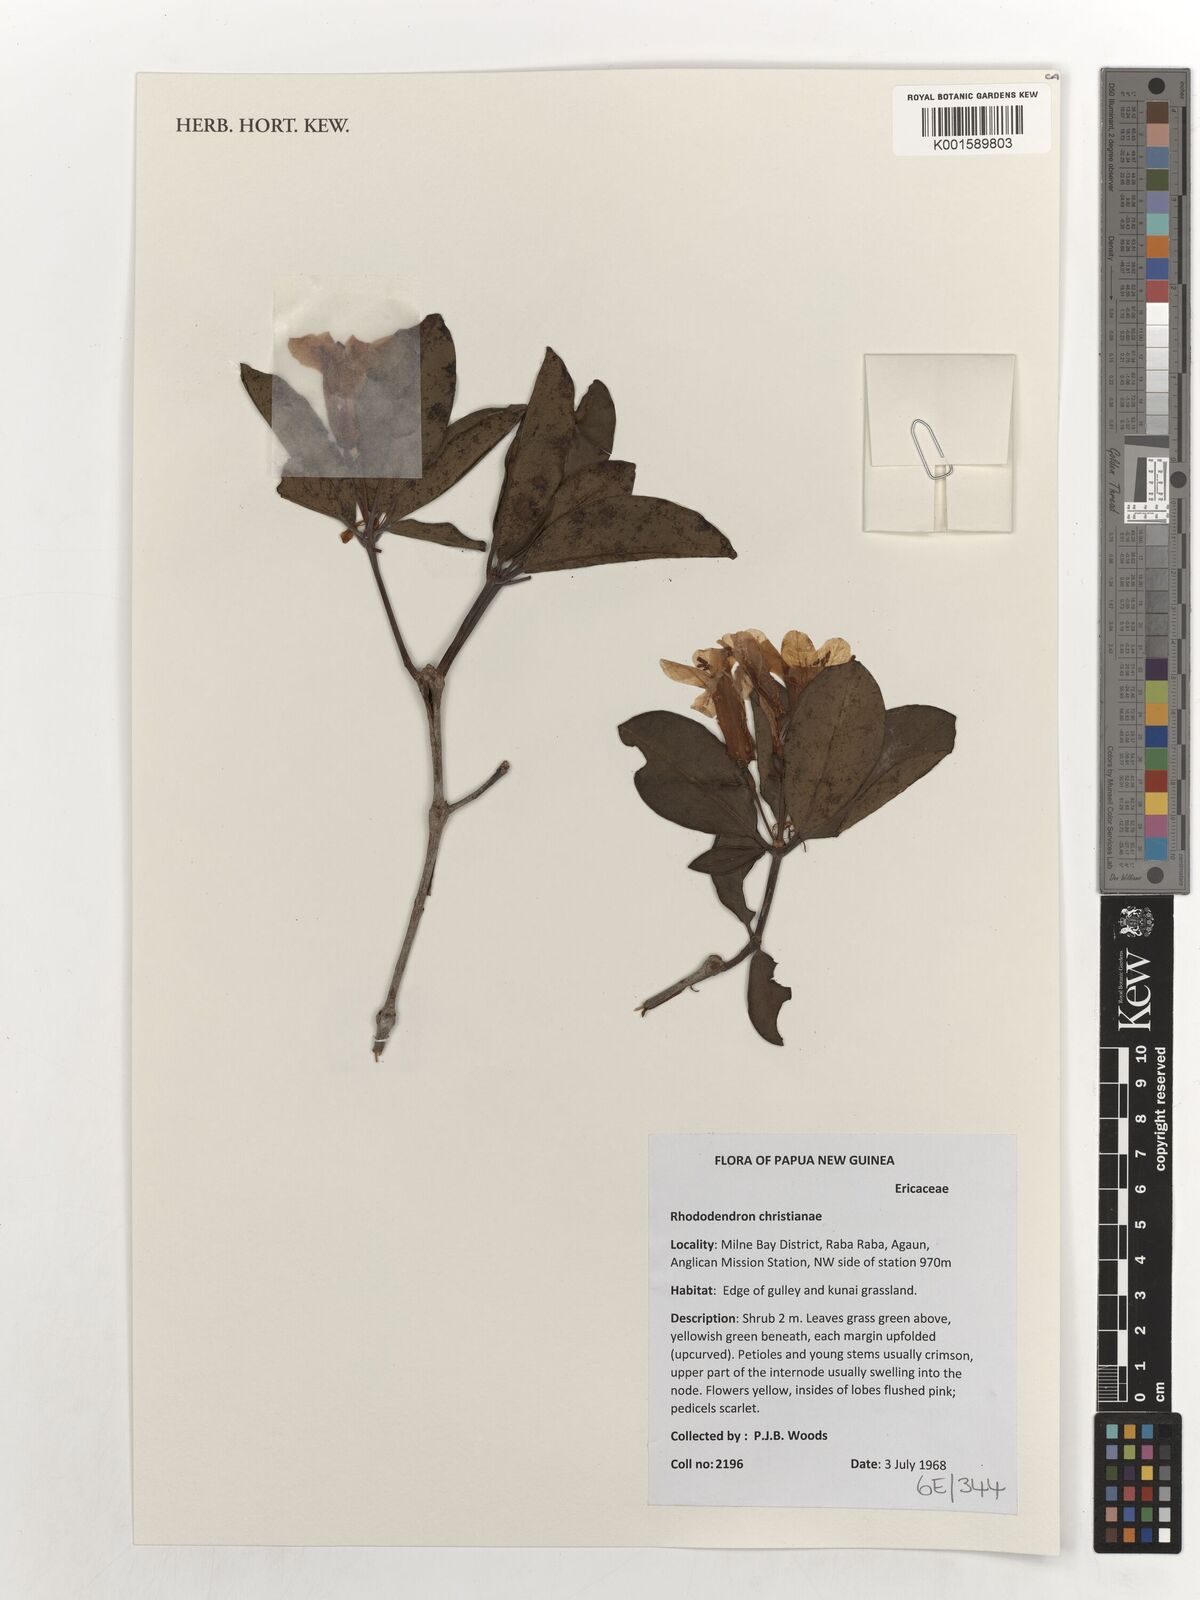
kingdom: Plantae
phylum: Tracheophyta
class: Magnoliopsida
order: Ericales
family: Ericaceae
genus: Rhododendron
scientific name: Rhododendron christianiae
